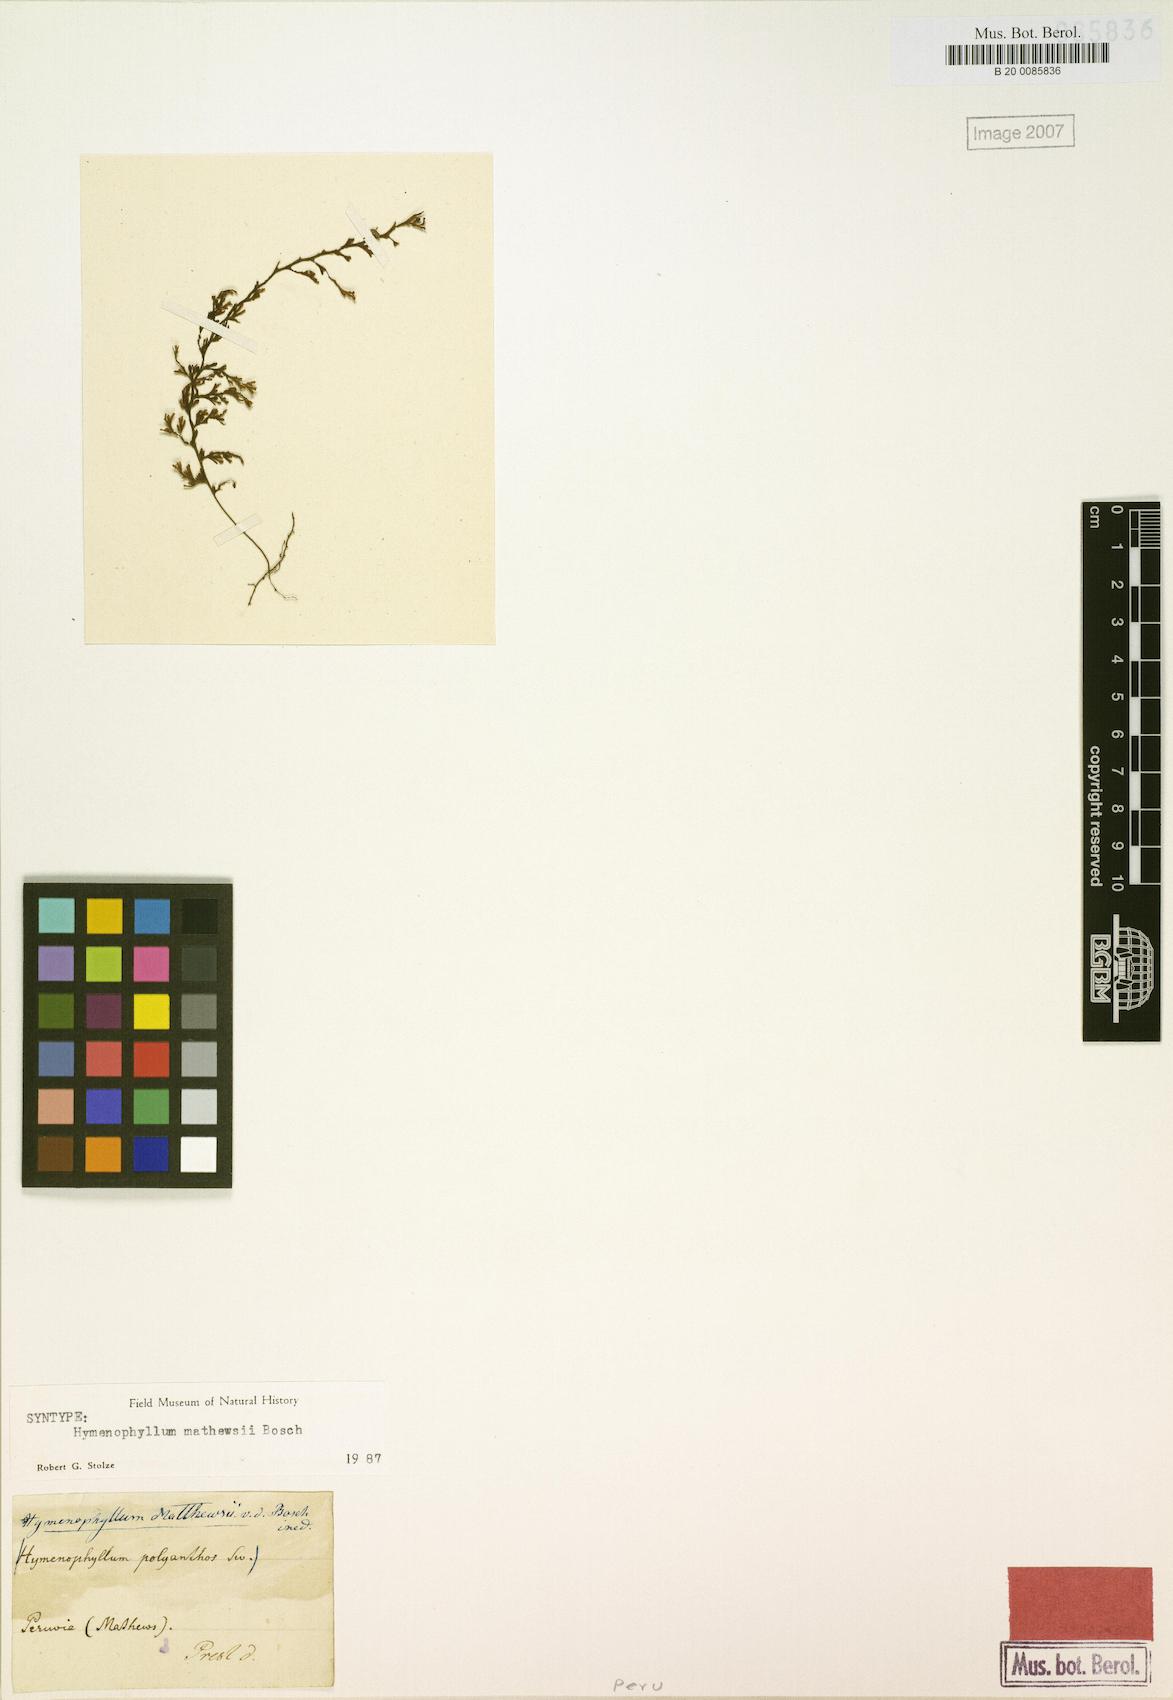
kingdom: Plantae
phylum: Tracheophyta
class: Polypodiopsida
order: Hymenophyllales
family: Hymenophyllaceae
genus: Hymenophyllum
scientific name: Hymenophyllum polyanthos
